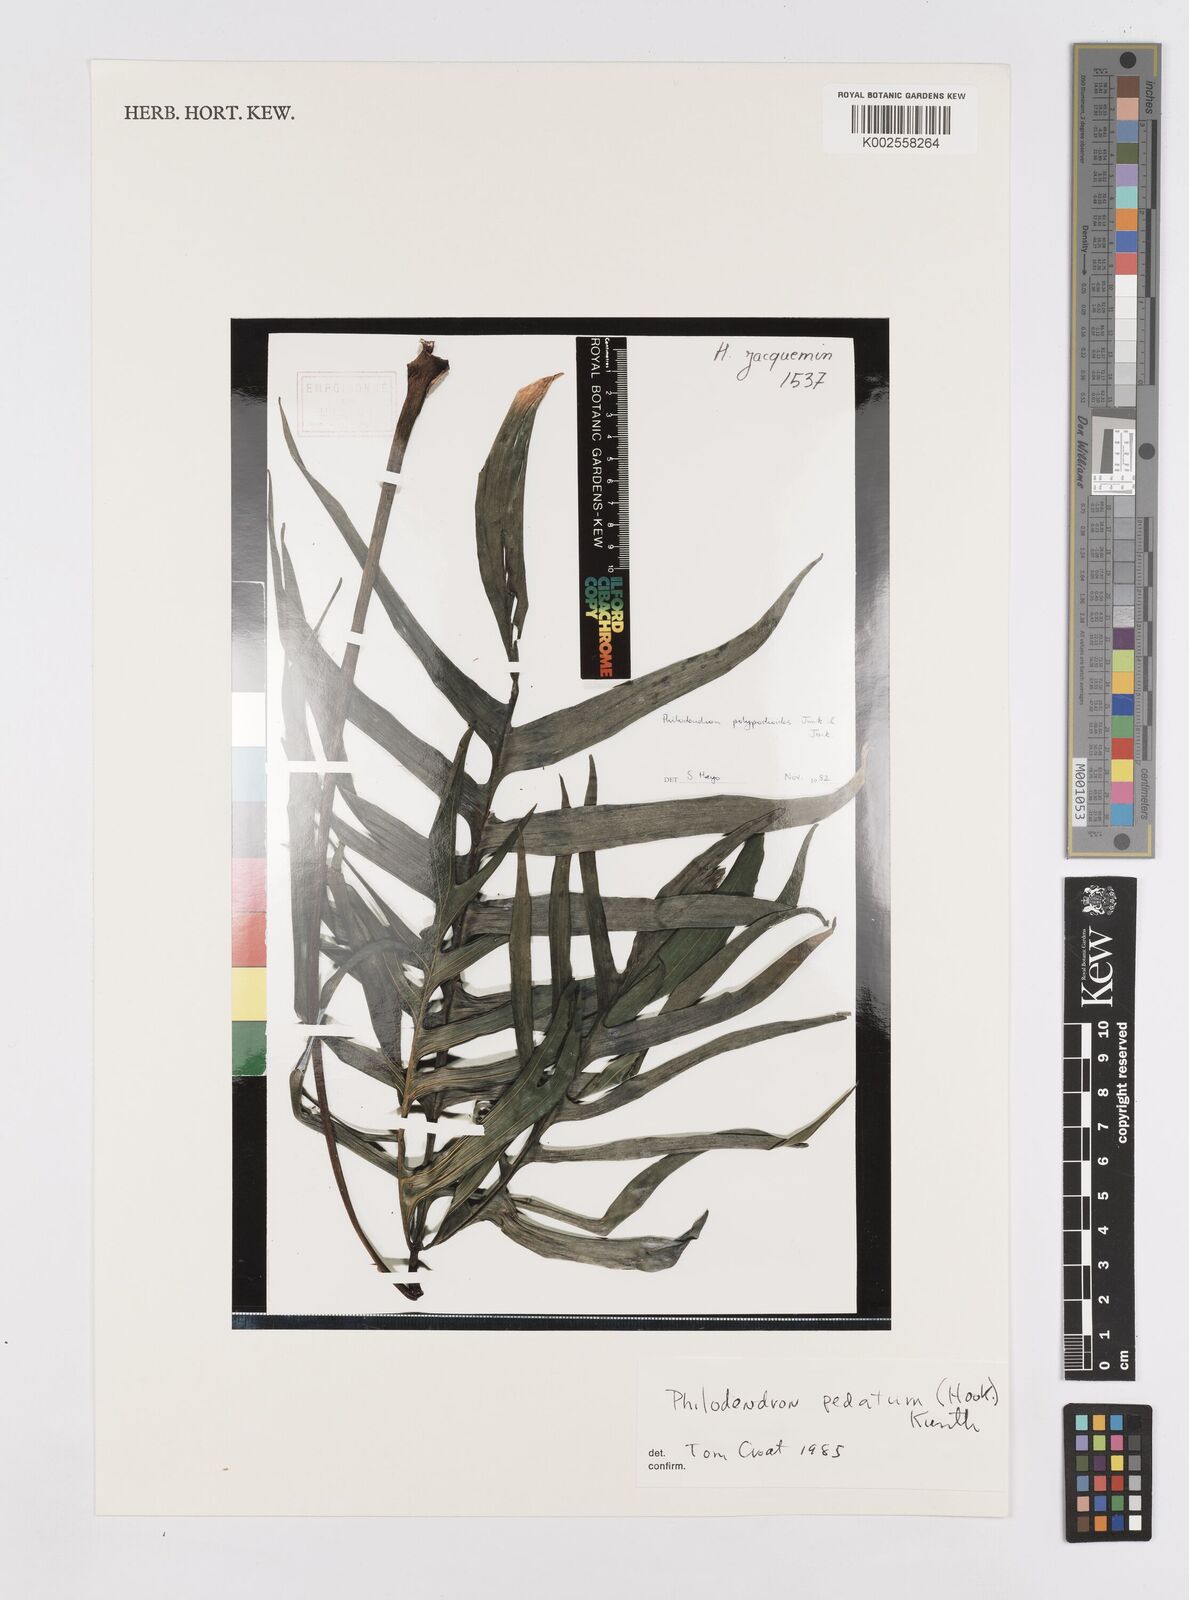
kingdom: Plantae
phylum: Tracheophyta
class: Liliopsida
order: Alismatales
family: Araceae
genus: Philodendron
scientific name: Philodendron pedatum
